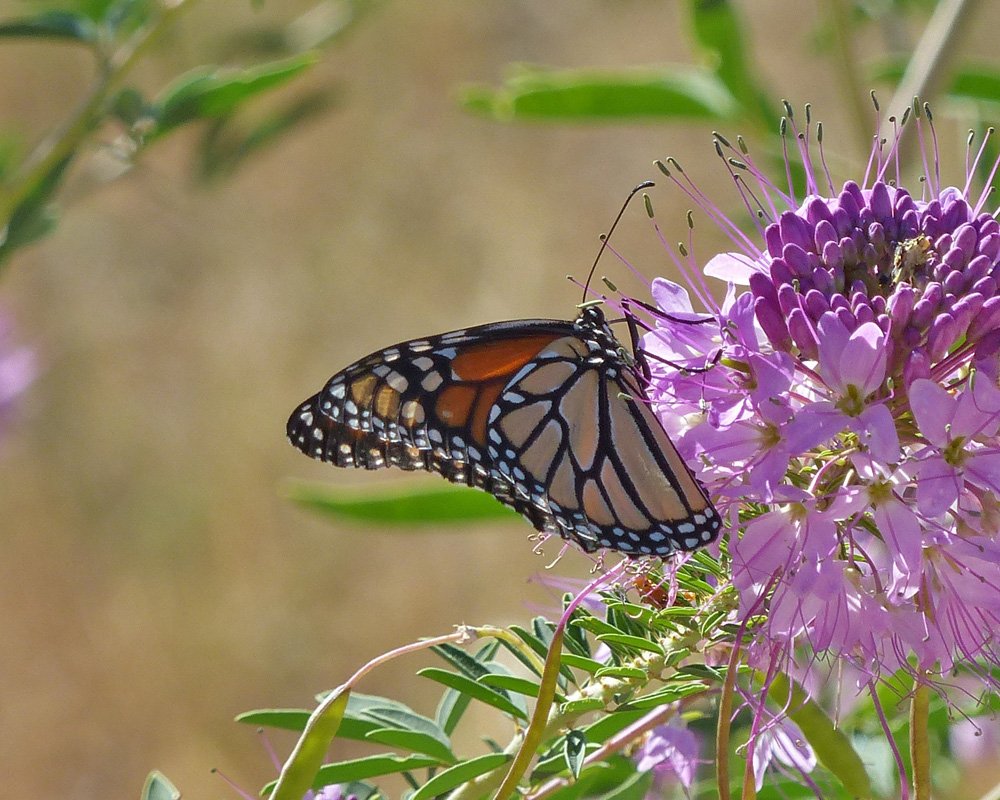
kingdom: Animalia
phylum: Arthropoda
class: Insecta
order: Lepidoptera
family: Nymphalidae
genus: Danaus
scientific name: Danaus plexippus
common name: Monarch
